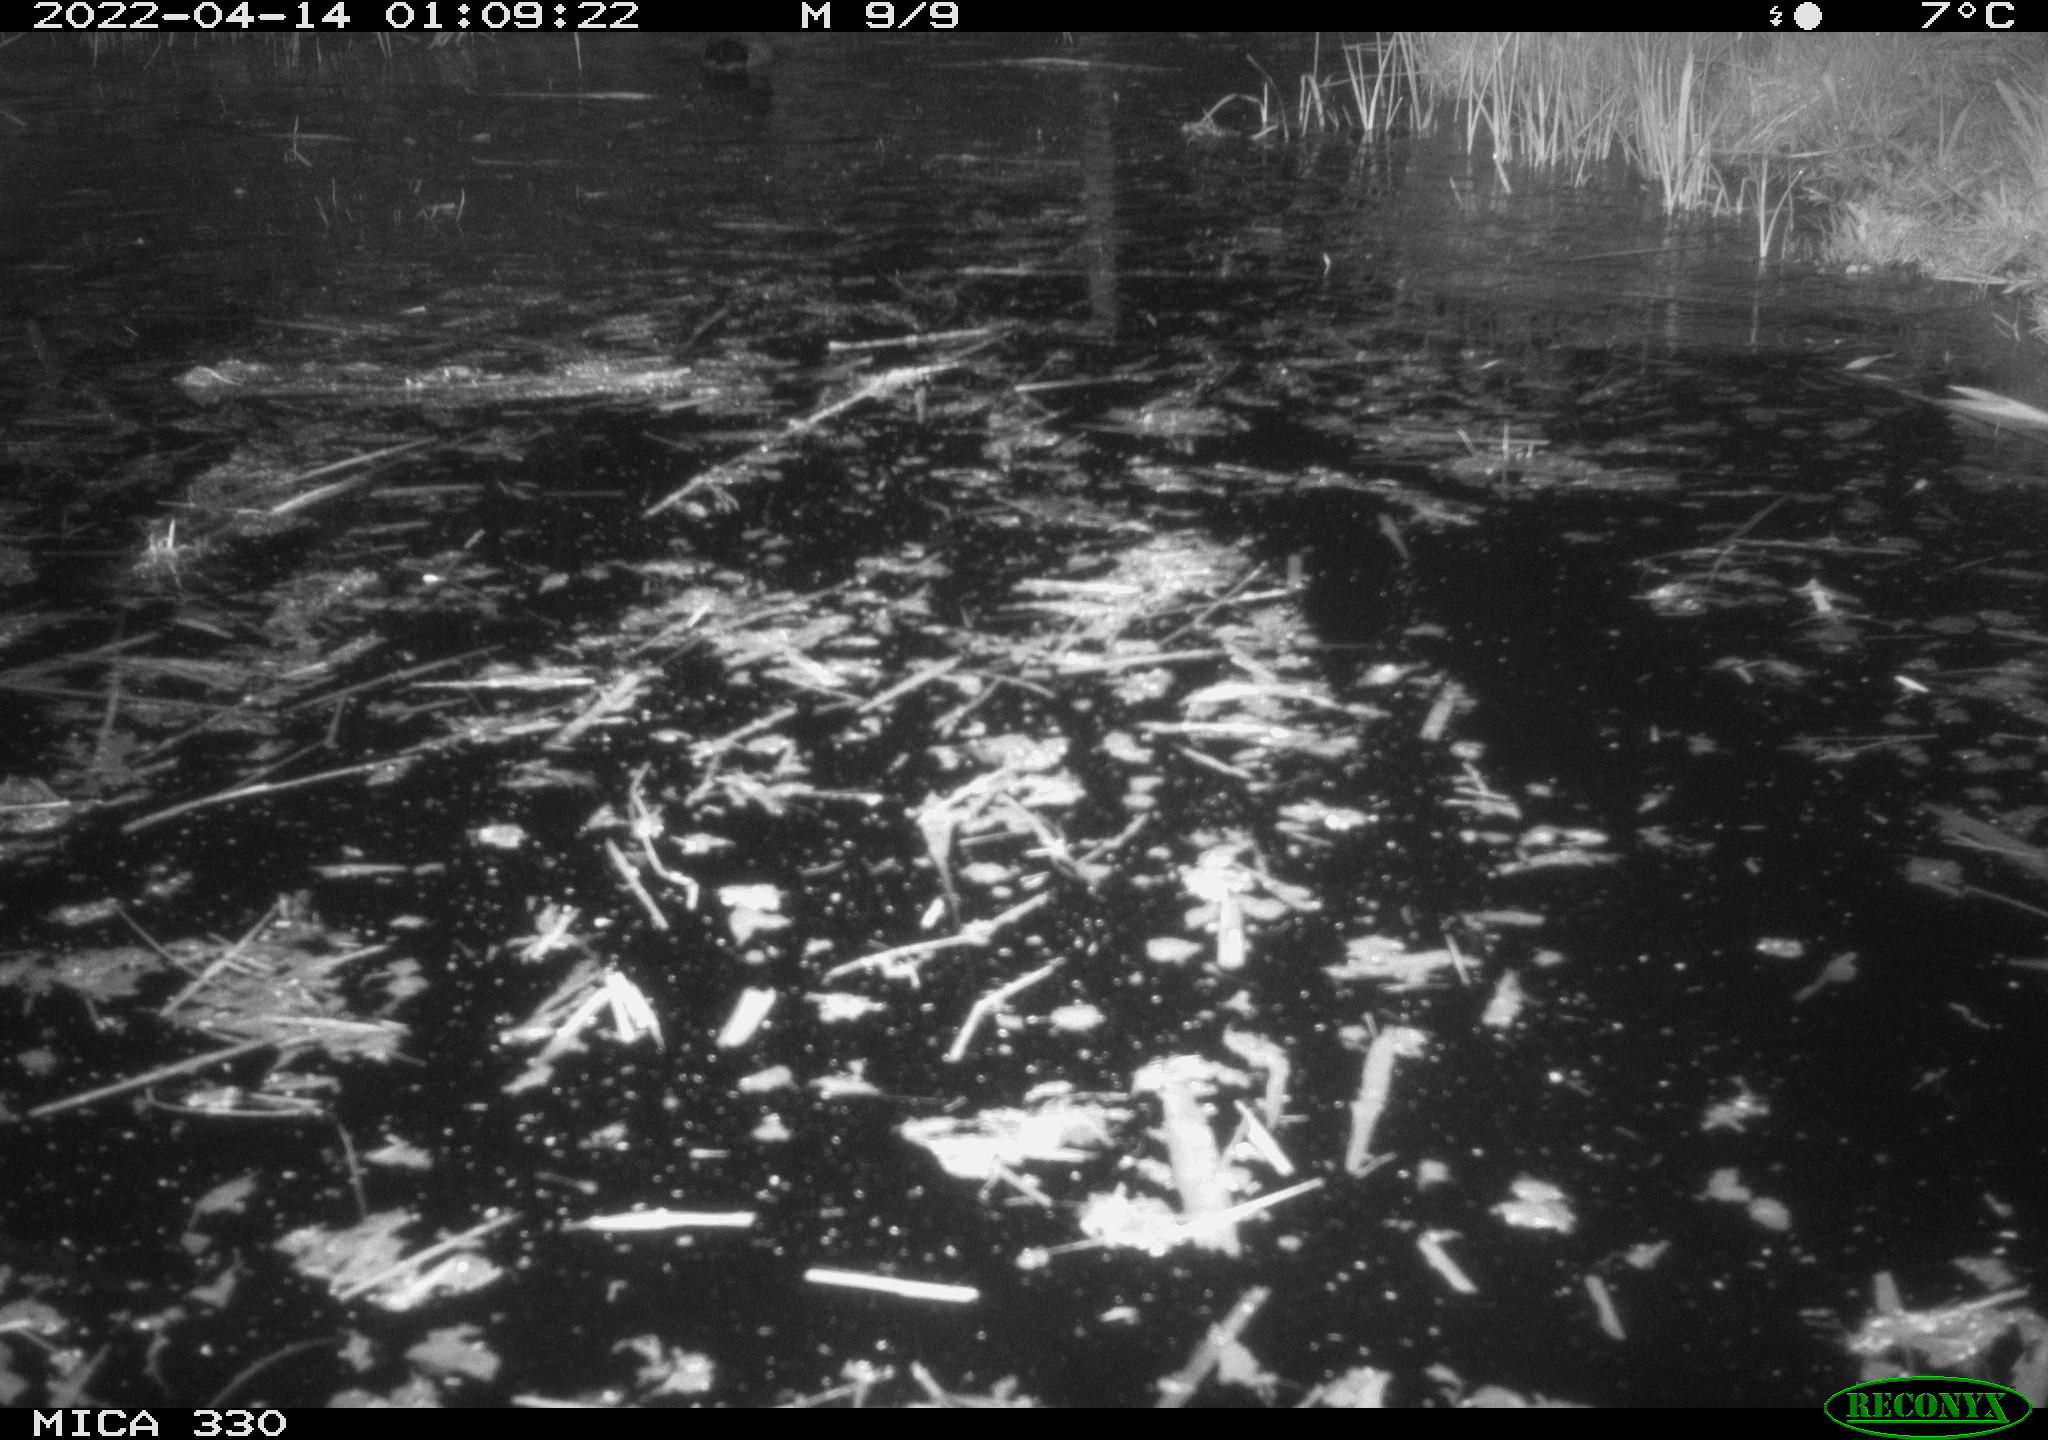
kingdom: Animalia
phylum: Chordata
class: Aves
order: Anseriformes
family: Anatidae
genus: Anas
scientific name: Anas platyrhynchos
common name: Mallard
